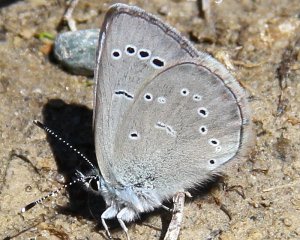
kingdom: Animalia
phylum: Arthropoda
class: Insecta
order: Lepidoptera
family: Lycaenidae
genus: Glaucopsyche
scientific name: Glaucopsyche lygdamus
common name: Silvery Blue
